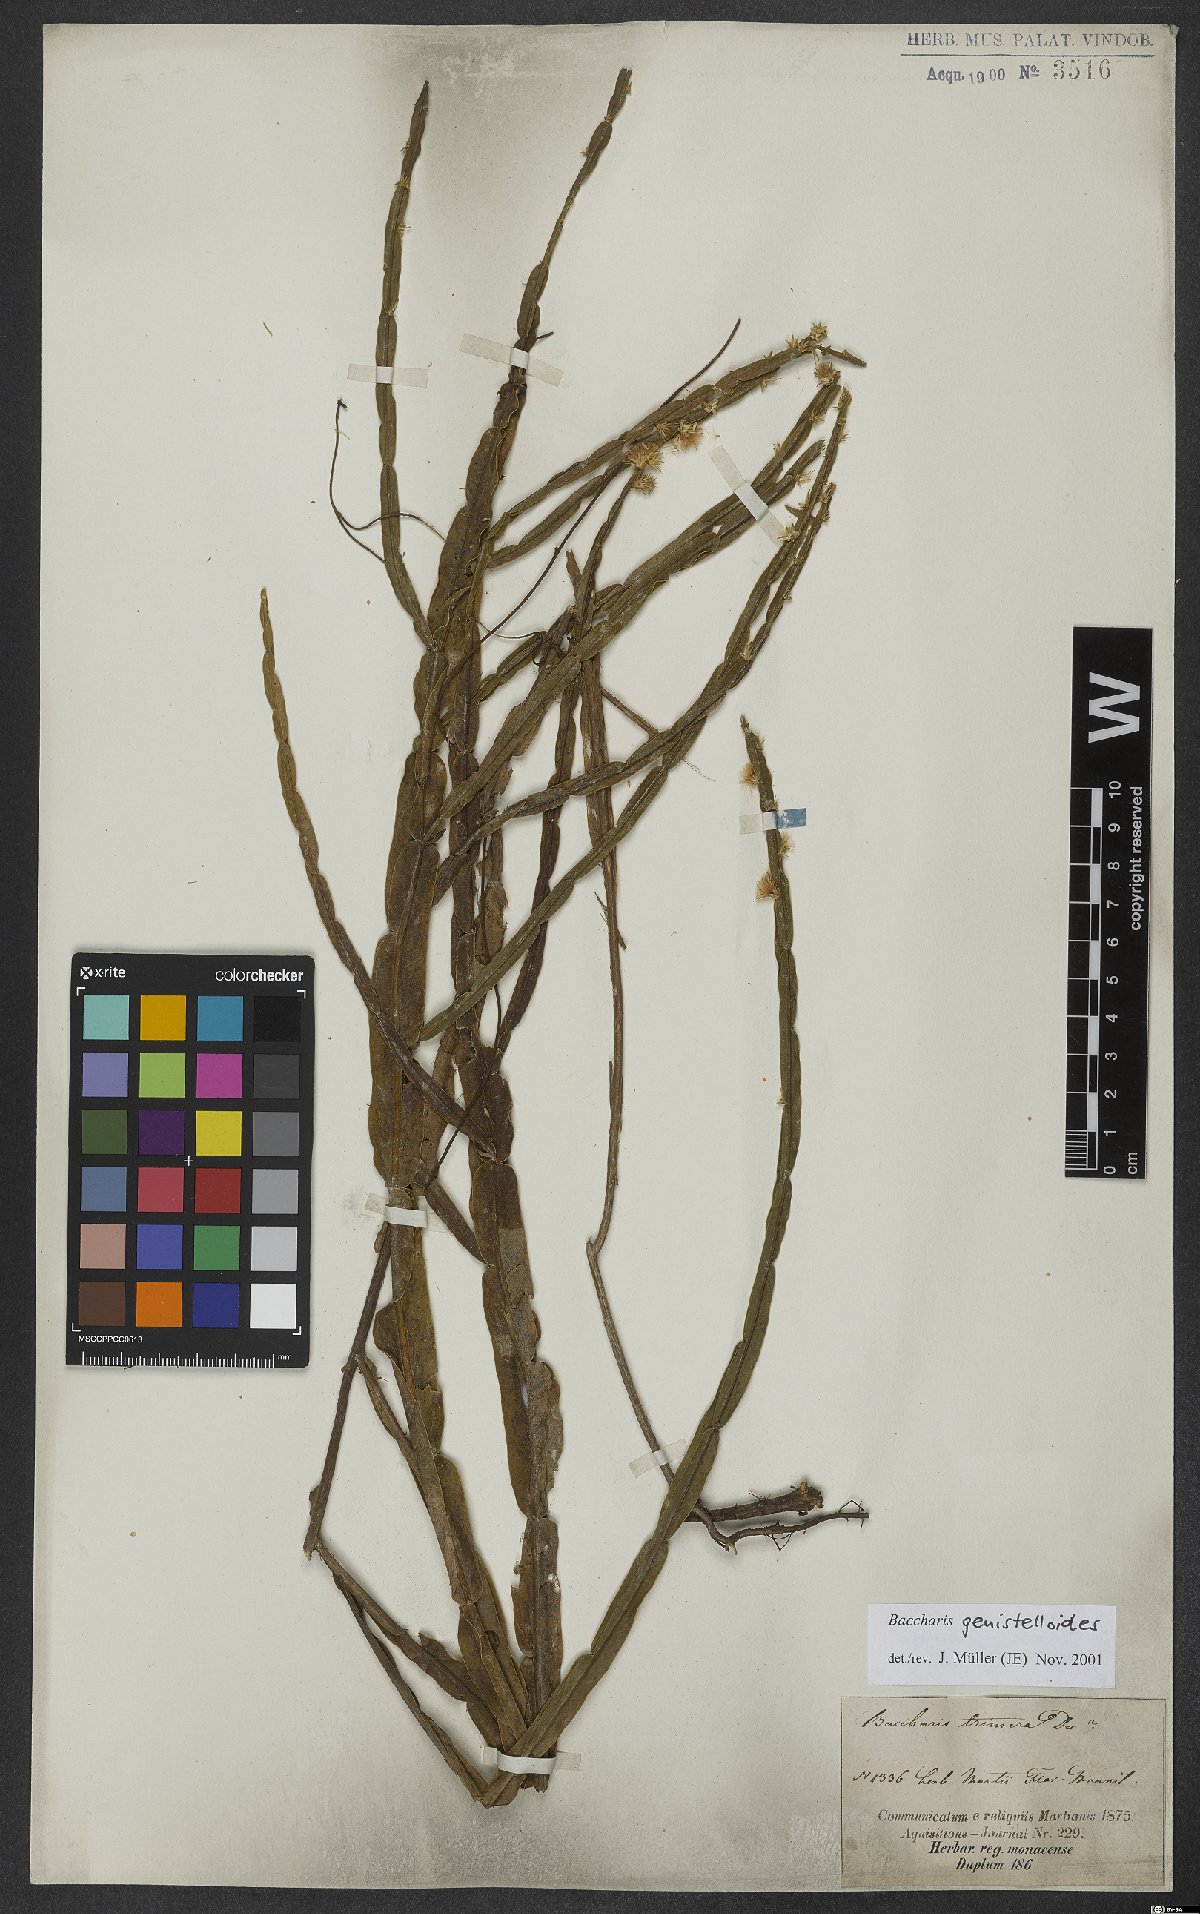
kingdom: Plantae
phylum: Tracheophyta
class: Magnoliopsida
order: Asterales
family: Asteraceae
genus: Baccharis
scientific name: Baccharis genistelloides
